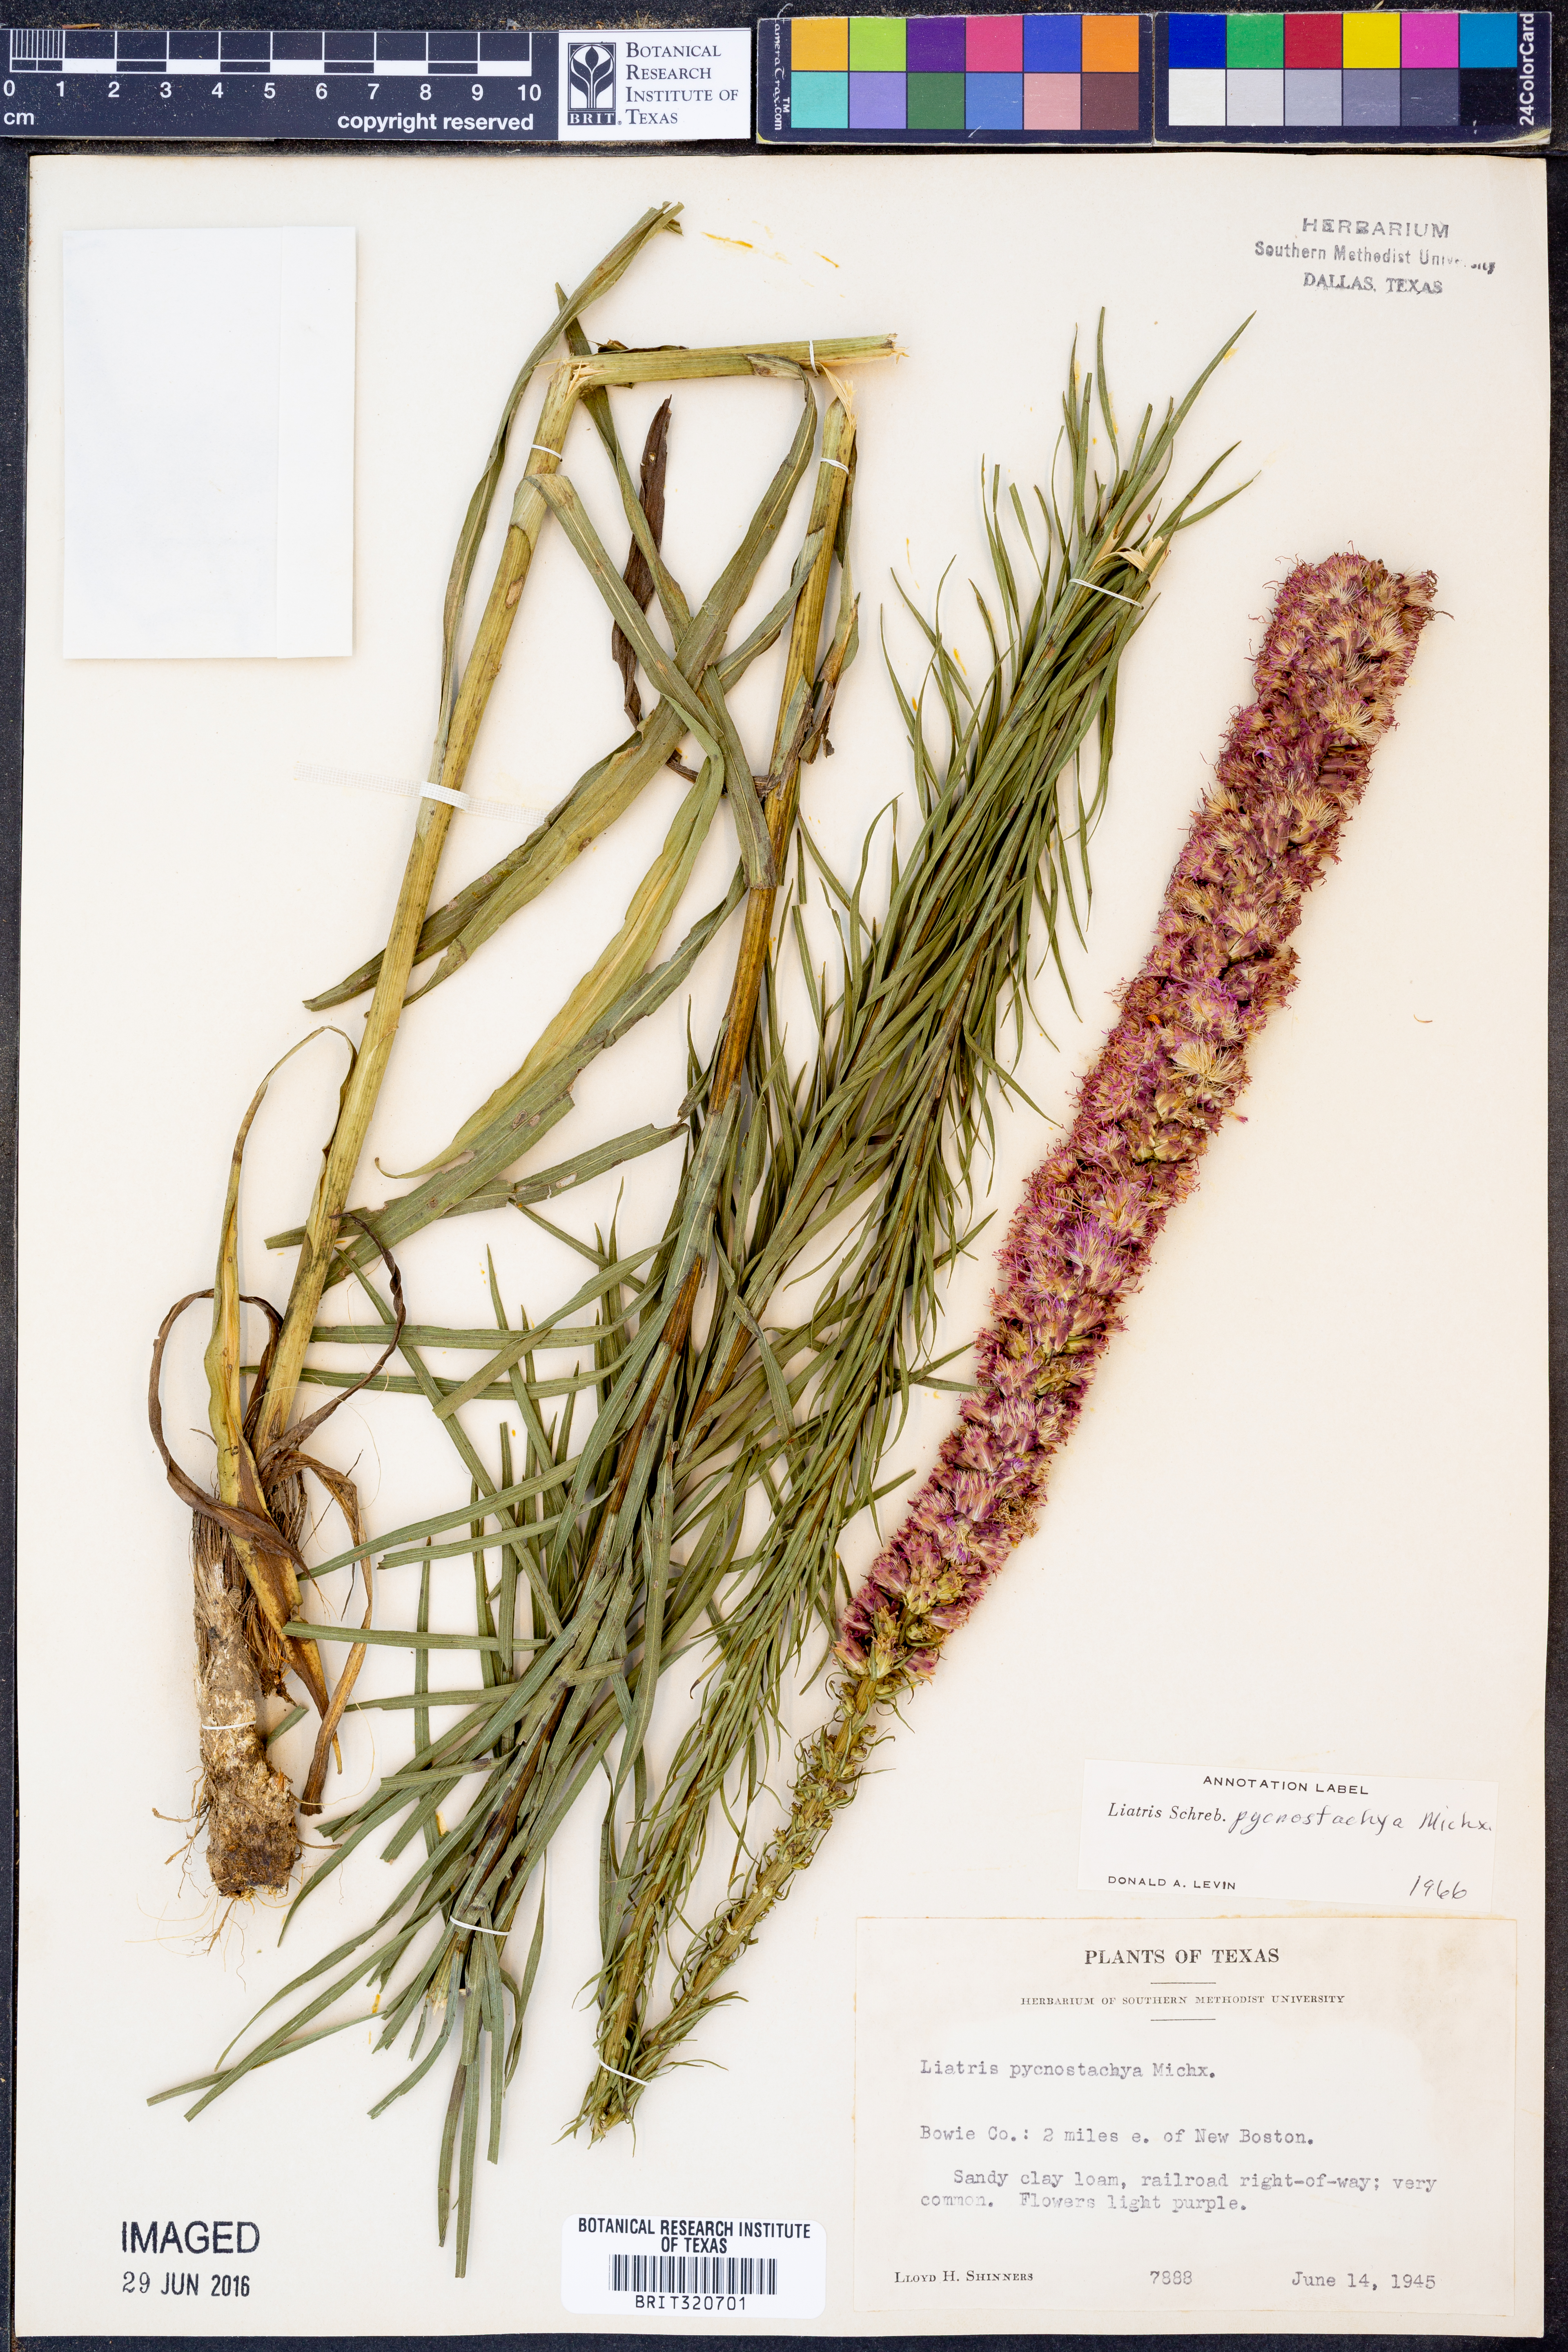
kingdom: Plantae
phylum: Tracheophyta
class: Magnoliopsida
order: Asterales
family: Asteraceae
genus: Liatris
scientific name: Liatris pycnostachya
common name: Cattail gayfeather
